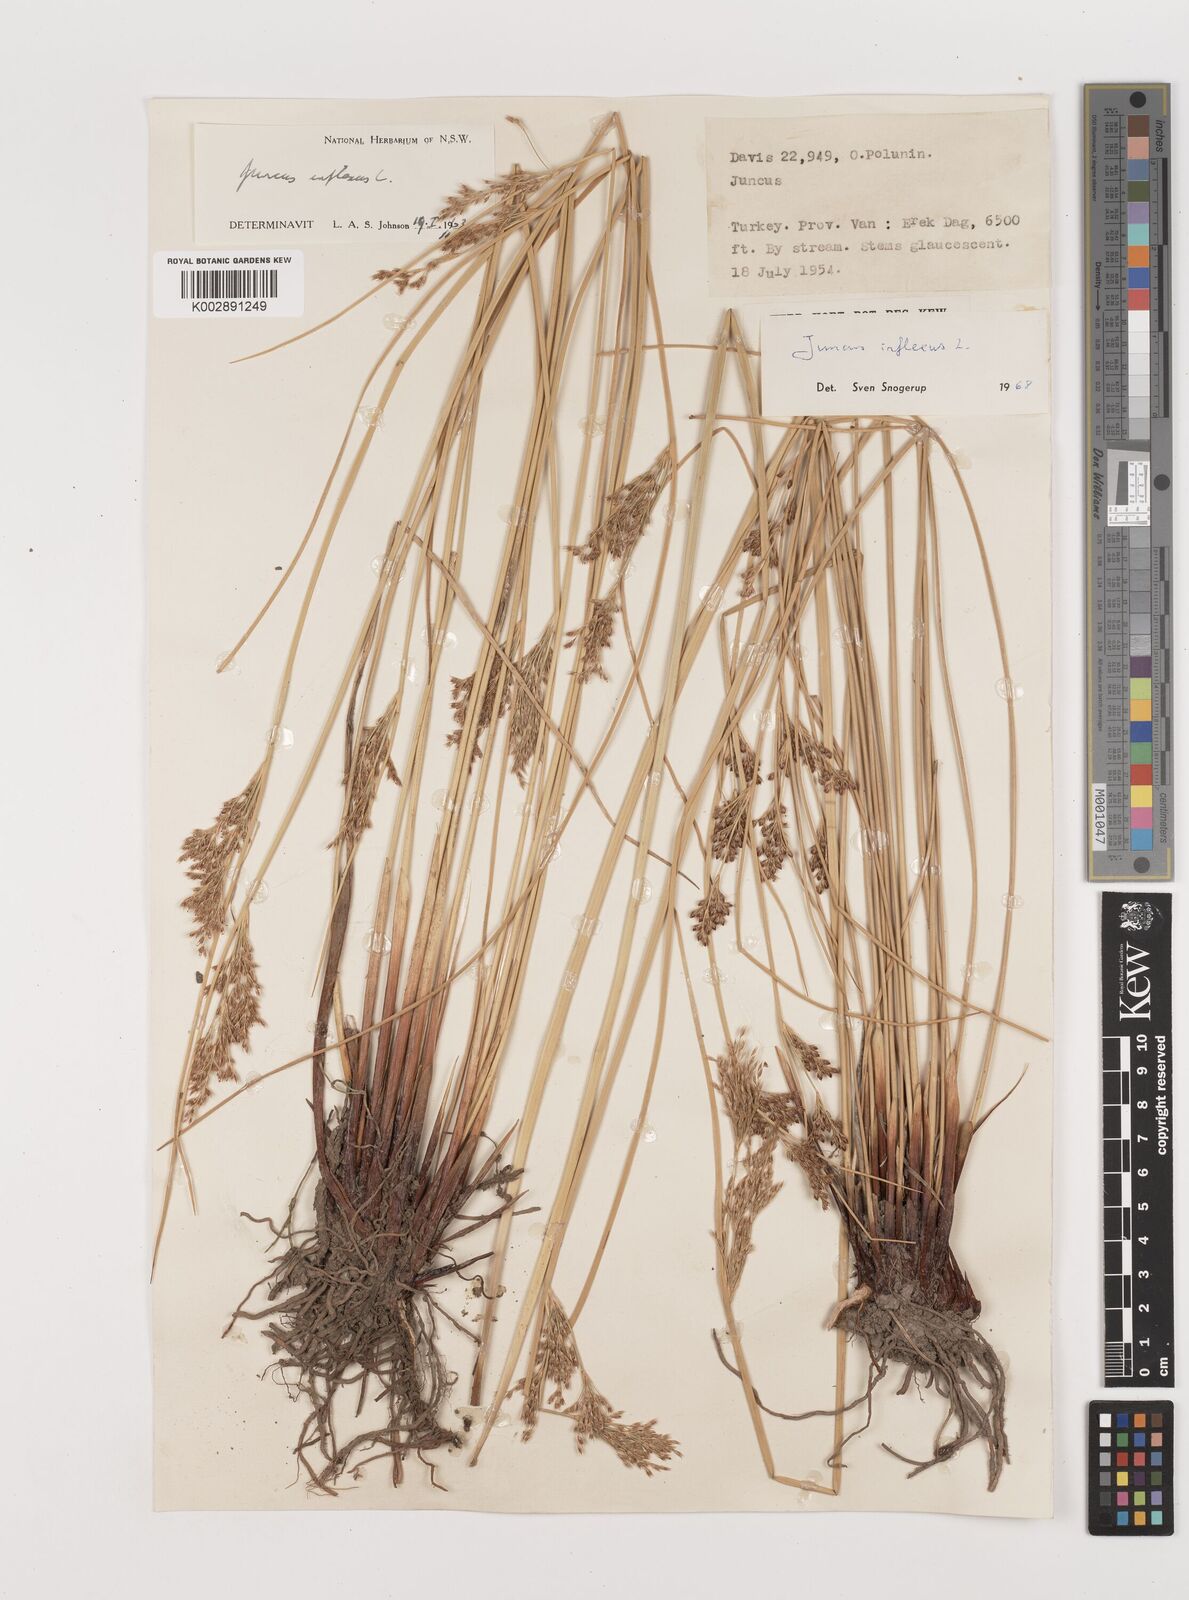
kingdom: Plantae
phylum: Tracheophyta
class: Liliopsida
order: Poales
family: Juncaceae
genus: Juncus
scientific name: Juncus inflexus
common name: Hard rush
